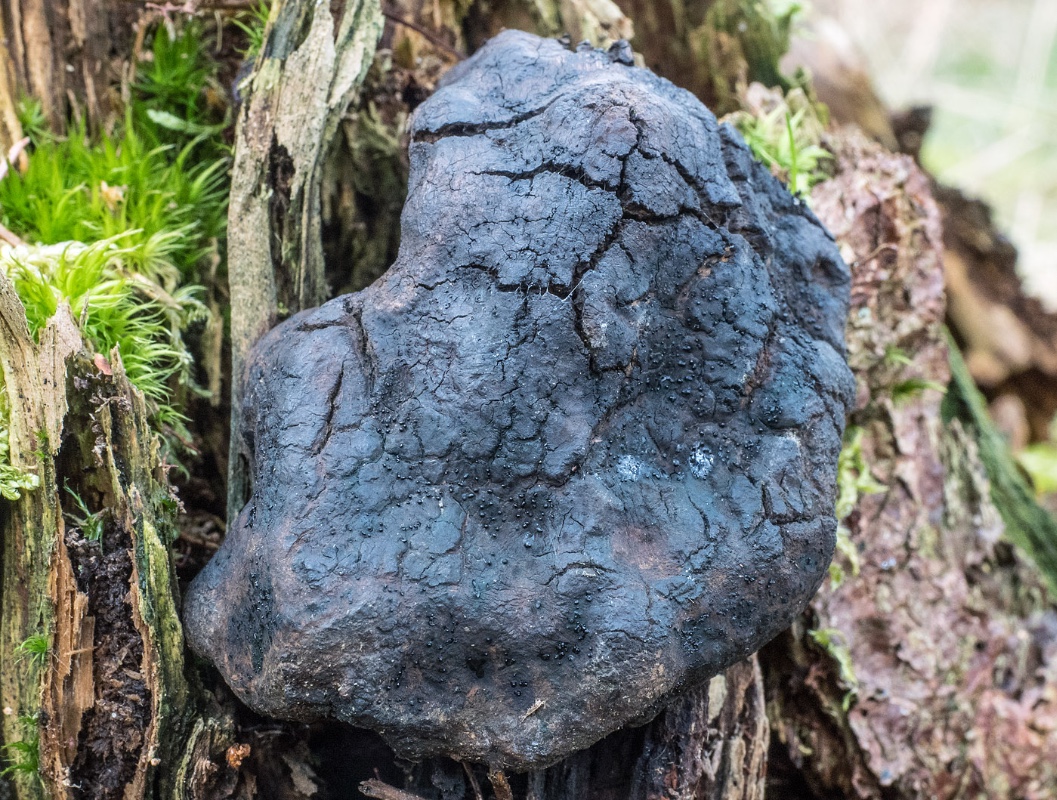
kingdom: Fungi
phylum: Ascomycota
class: Sordariomycetes
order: Boliniales
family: Boliniaceae
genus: Camarops
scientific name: Camarops tubulina
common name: knudret kulsnegl
